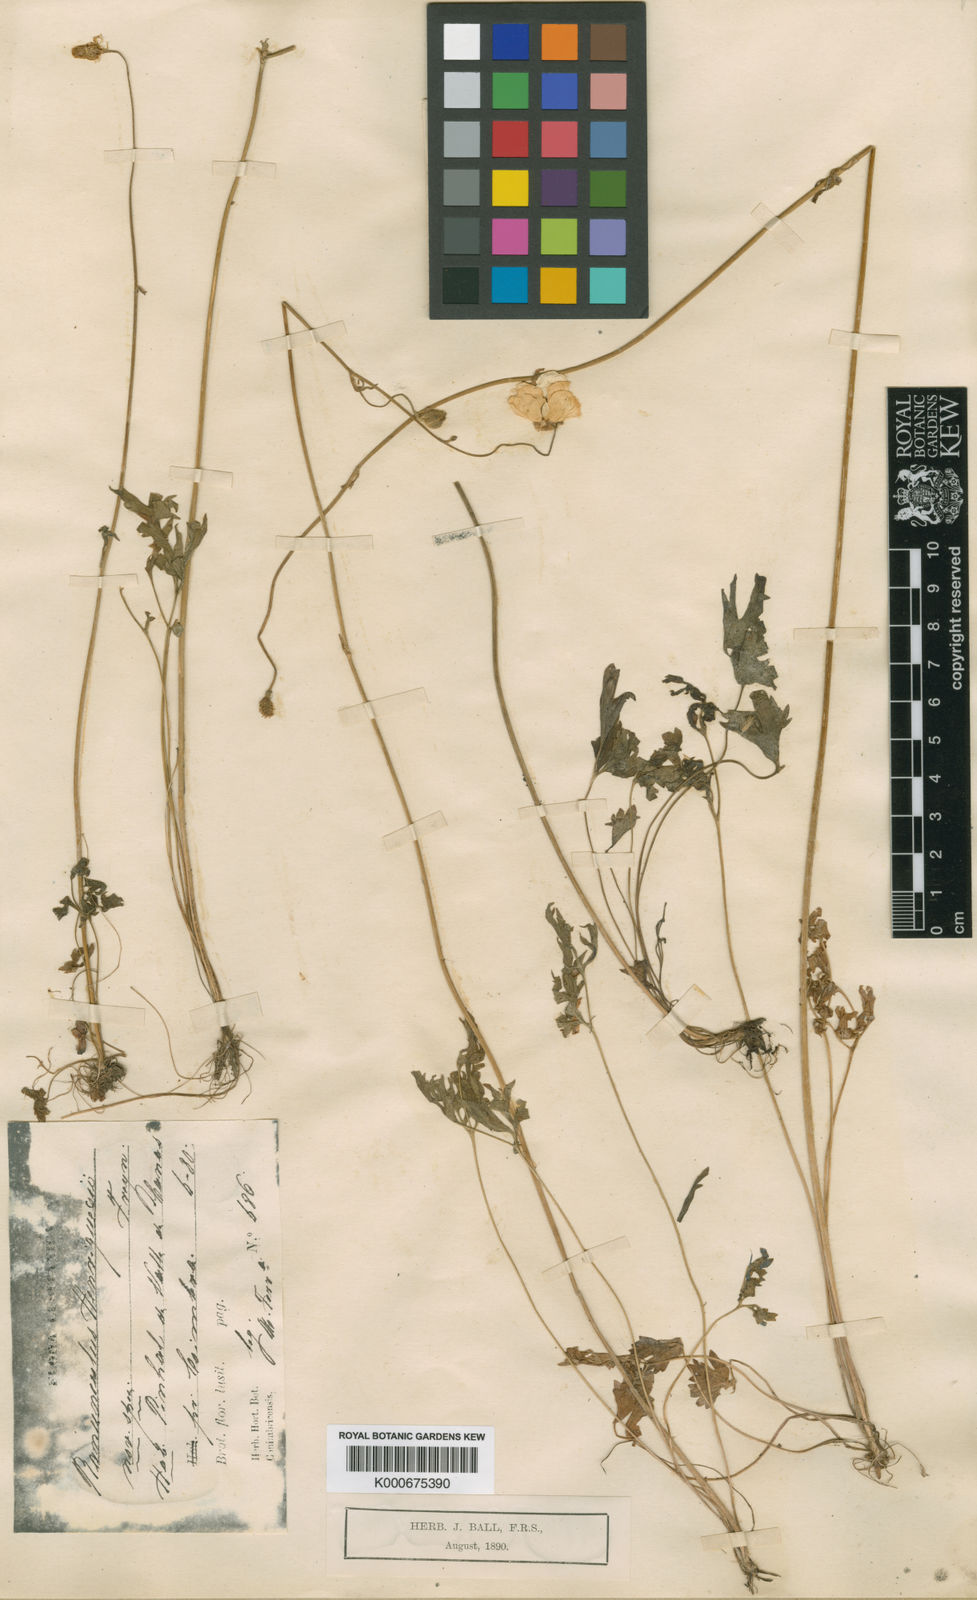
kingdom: Plantae
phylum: Tracheophyta
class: Magnoliopsida
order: Ranunculales
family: Ranunculaceae
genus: Ranunculus
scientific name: Ranunculus gregarius
